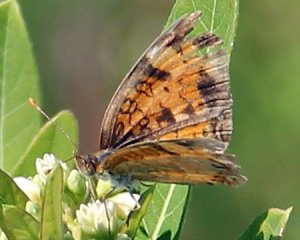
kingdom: Animalia
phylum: Arthropoda
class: Insecta
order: Lepidoptera
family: Nymphalidae
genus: Phyciodes
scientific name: Phyciodes tharos
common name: Northern Crescent
